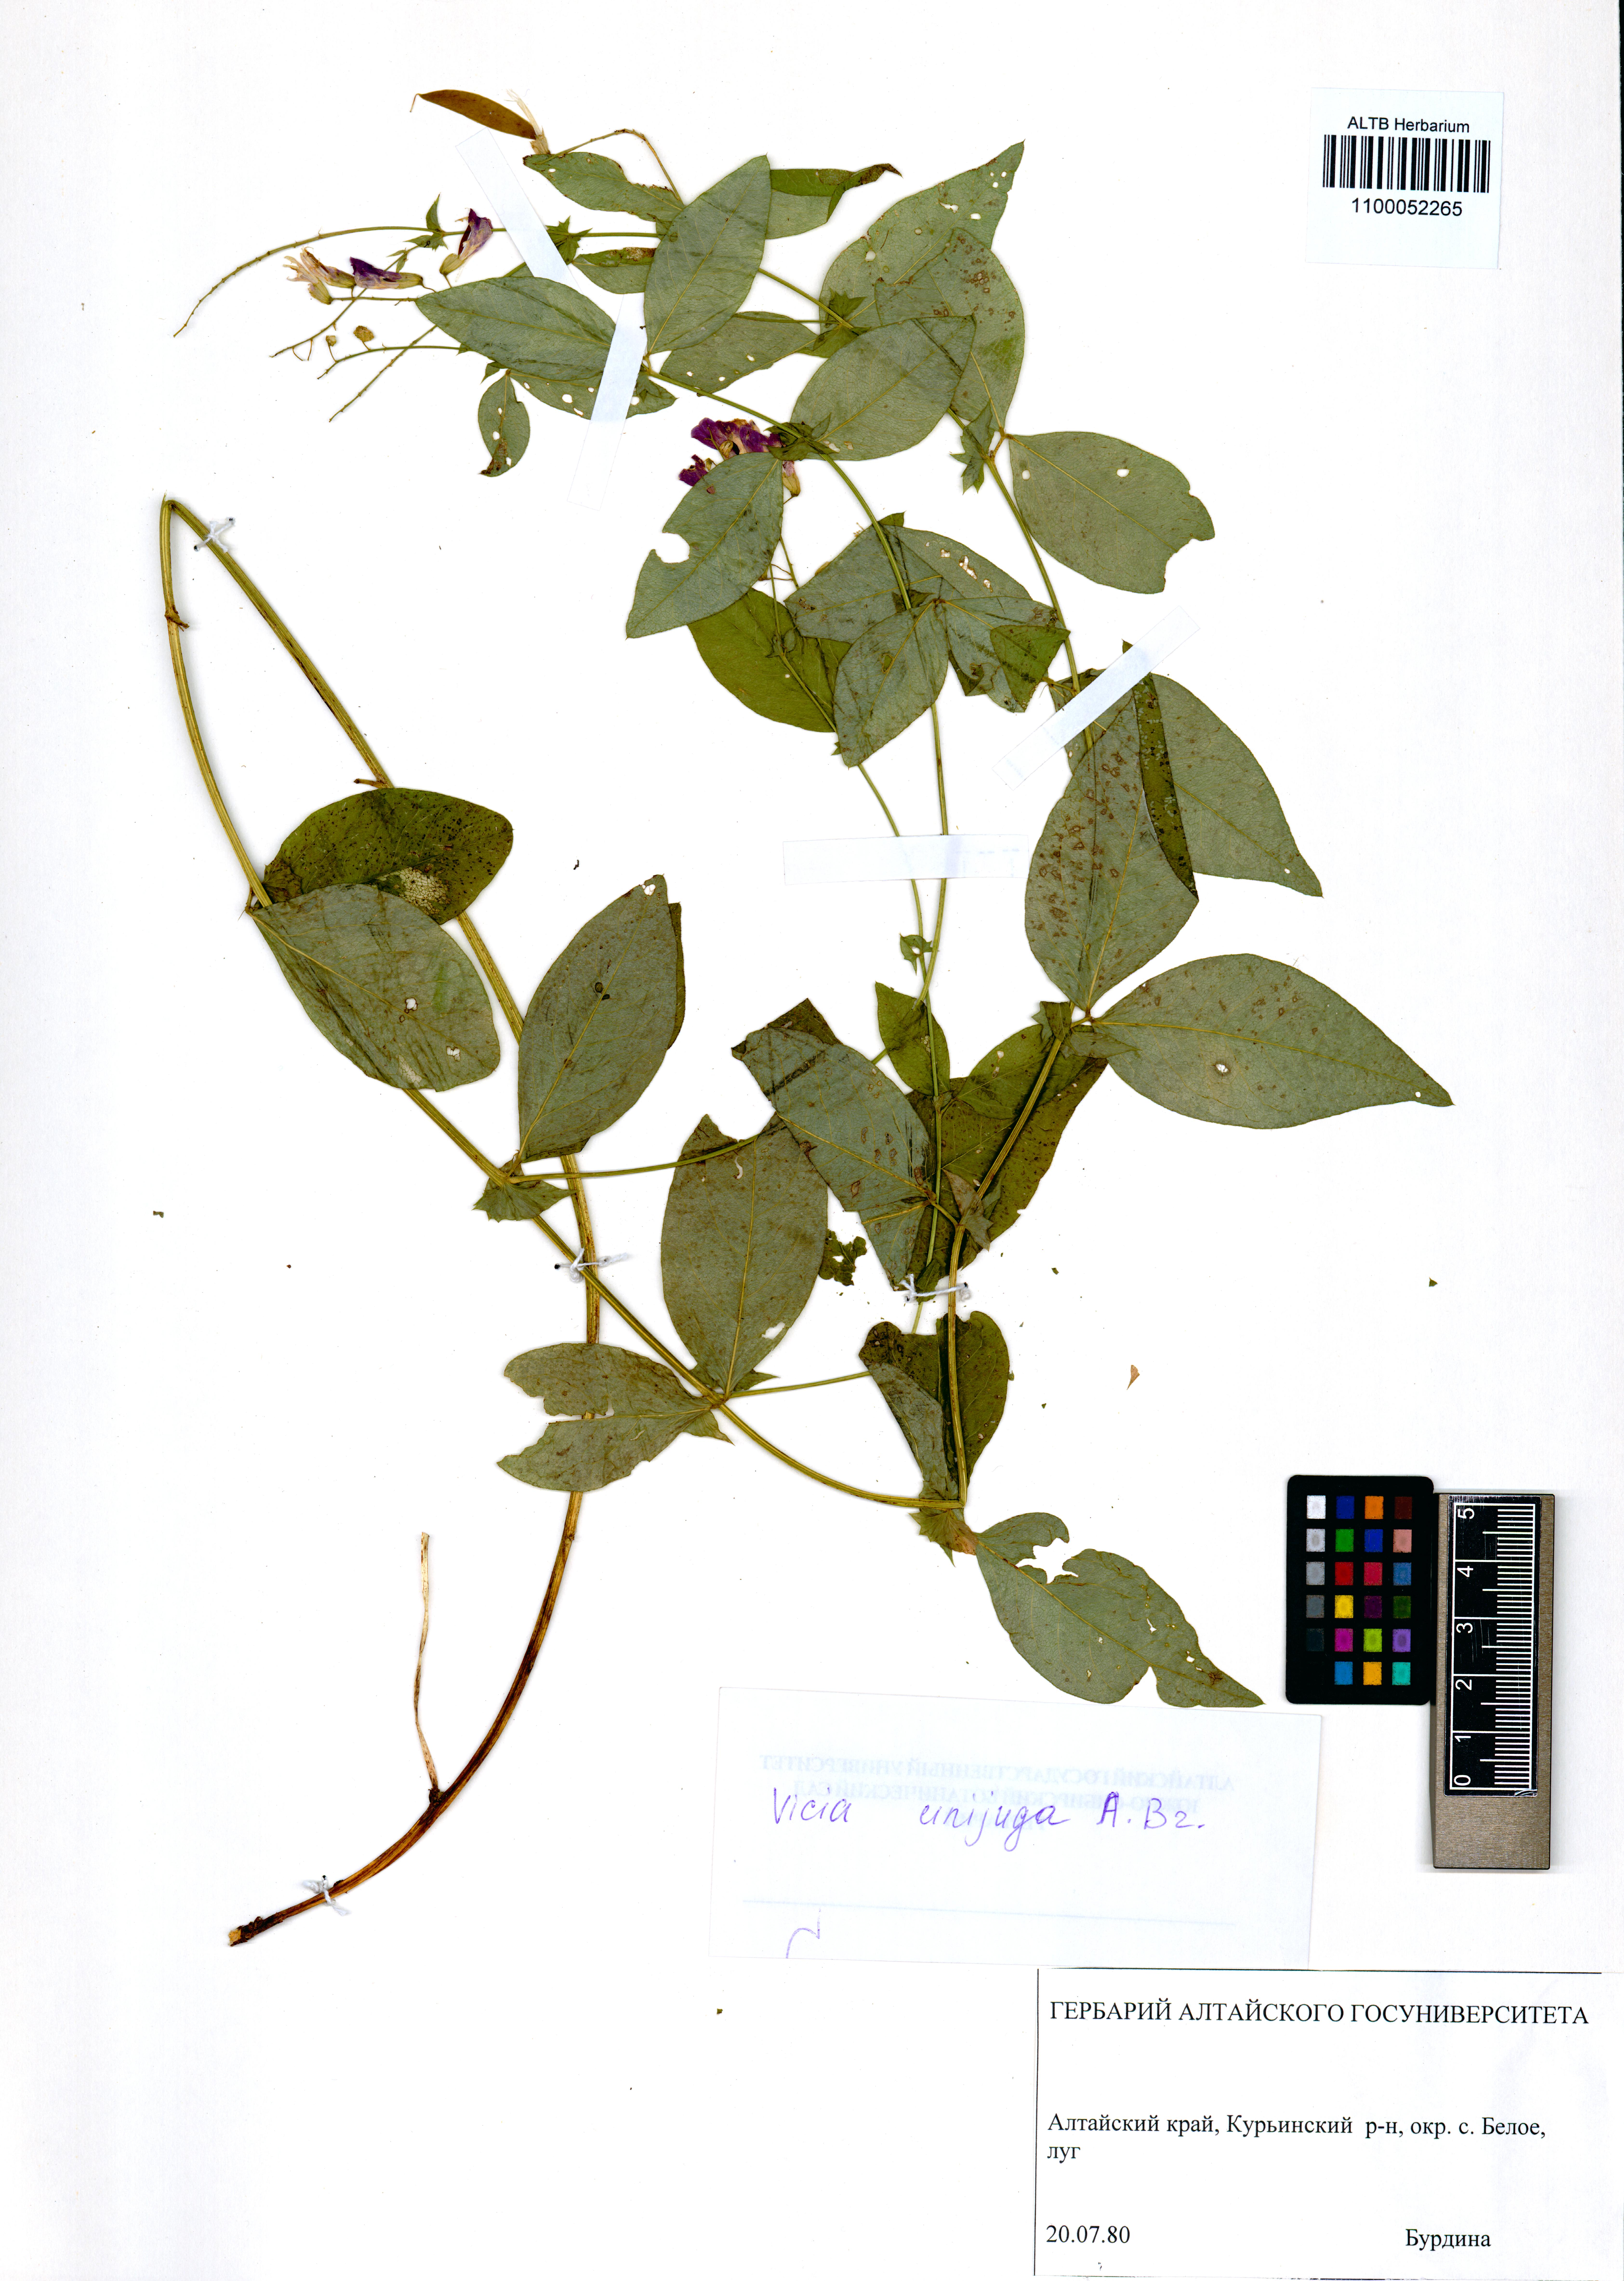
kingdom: Plantae
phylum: Tracheophyta
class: Magnoliopsida
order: Fabales
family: Fabaceae
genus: Vicia
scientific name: Vicia unijuga
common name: Two-leaf vetch
